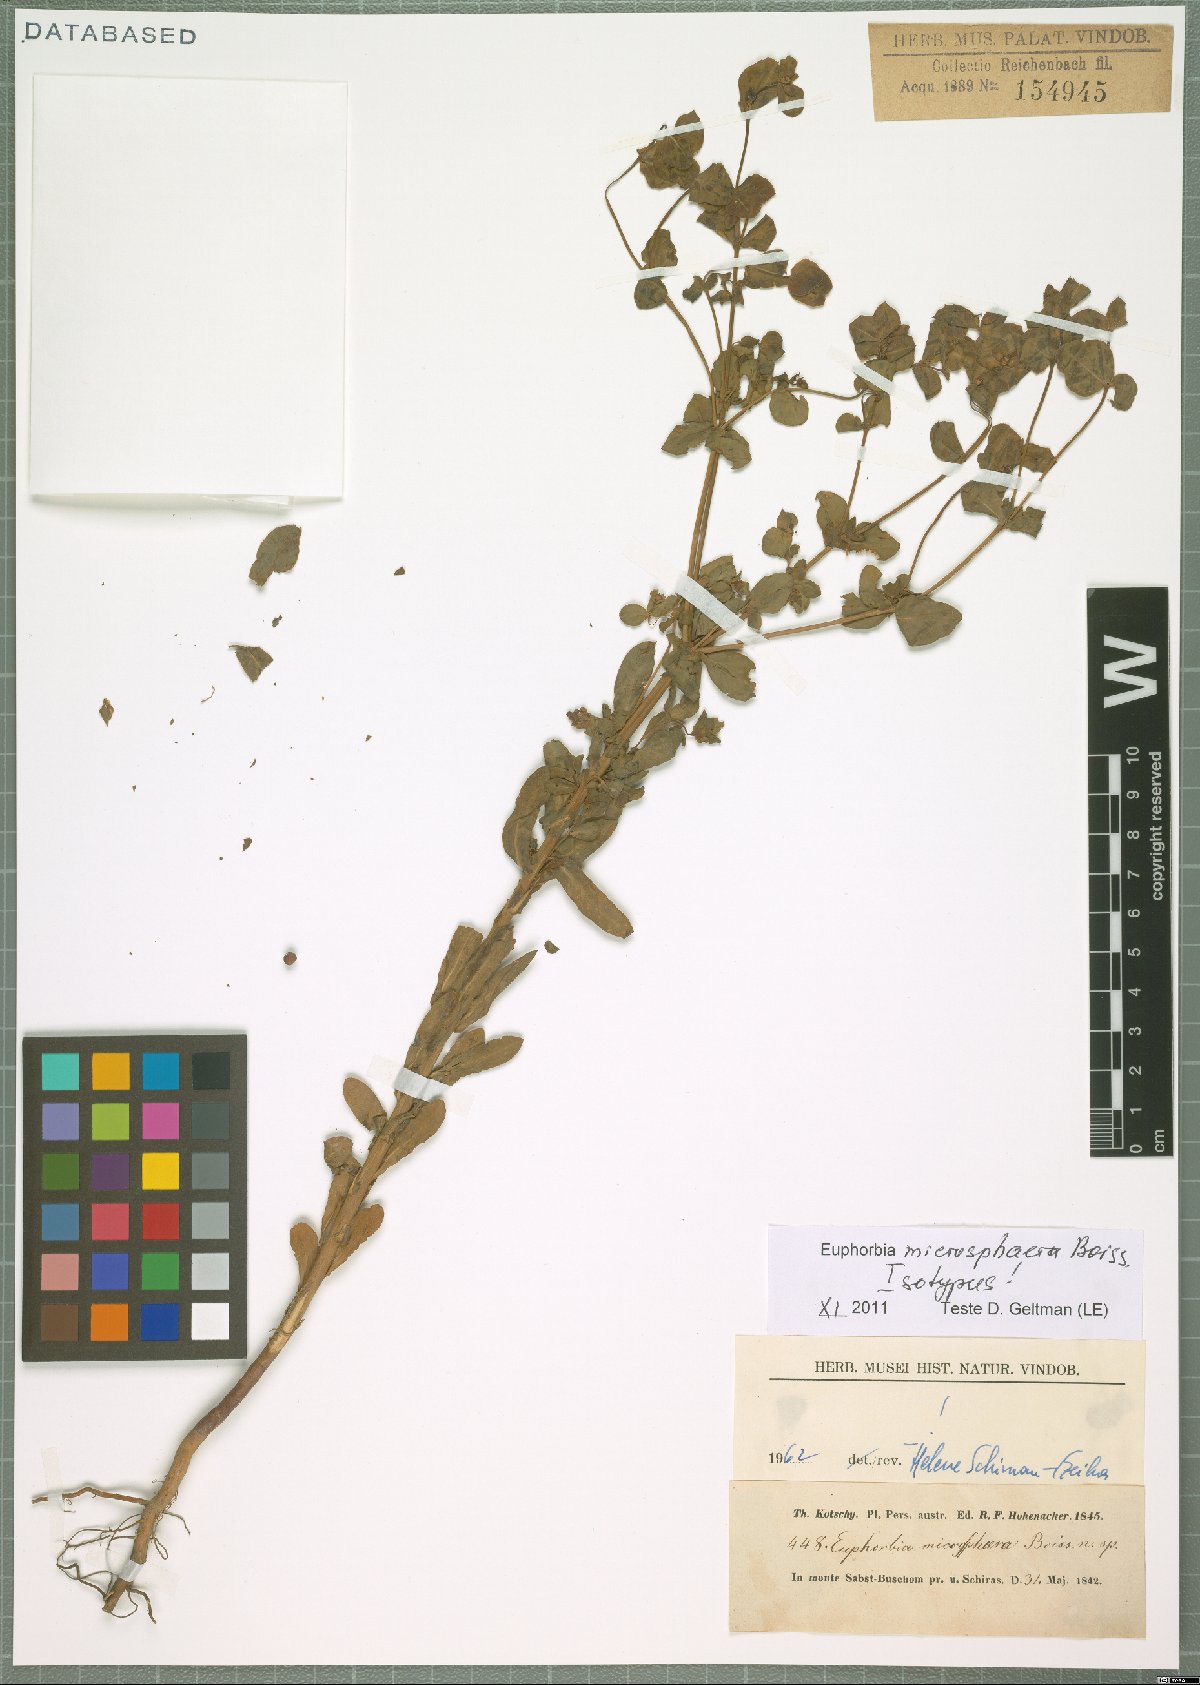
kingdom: Plantae
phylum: Tracheophyta
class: Magnoliopsida
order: Malpighiales
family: Euphorbiaceae
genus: Euphorbia
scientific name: Euphorbia microsphaera
